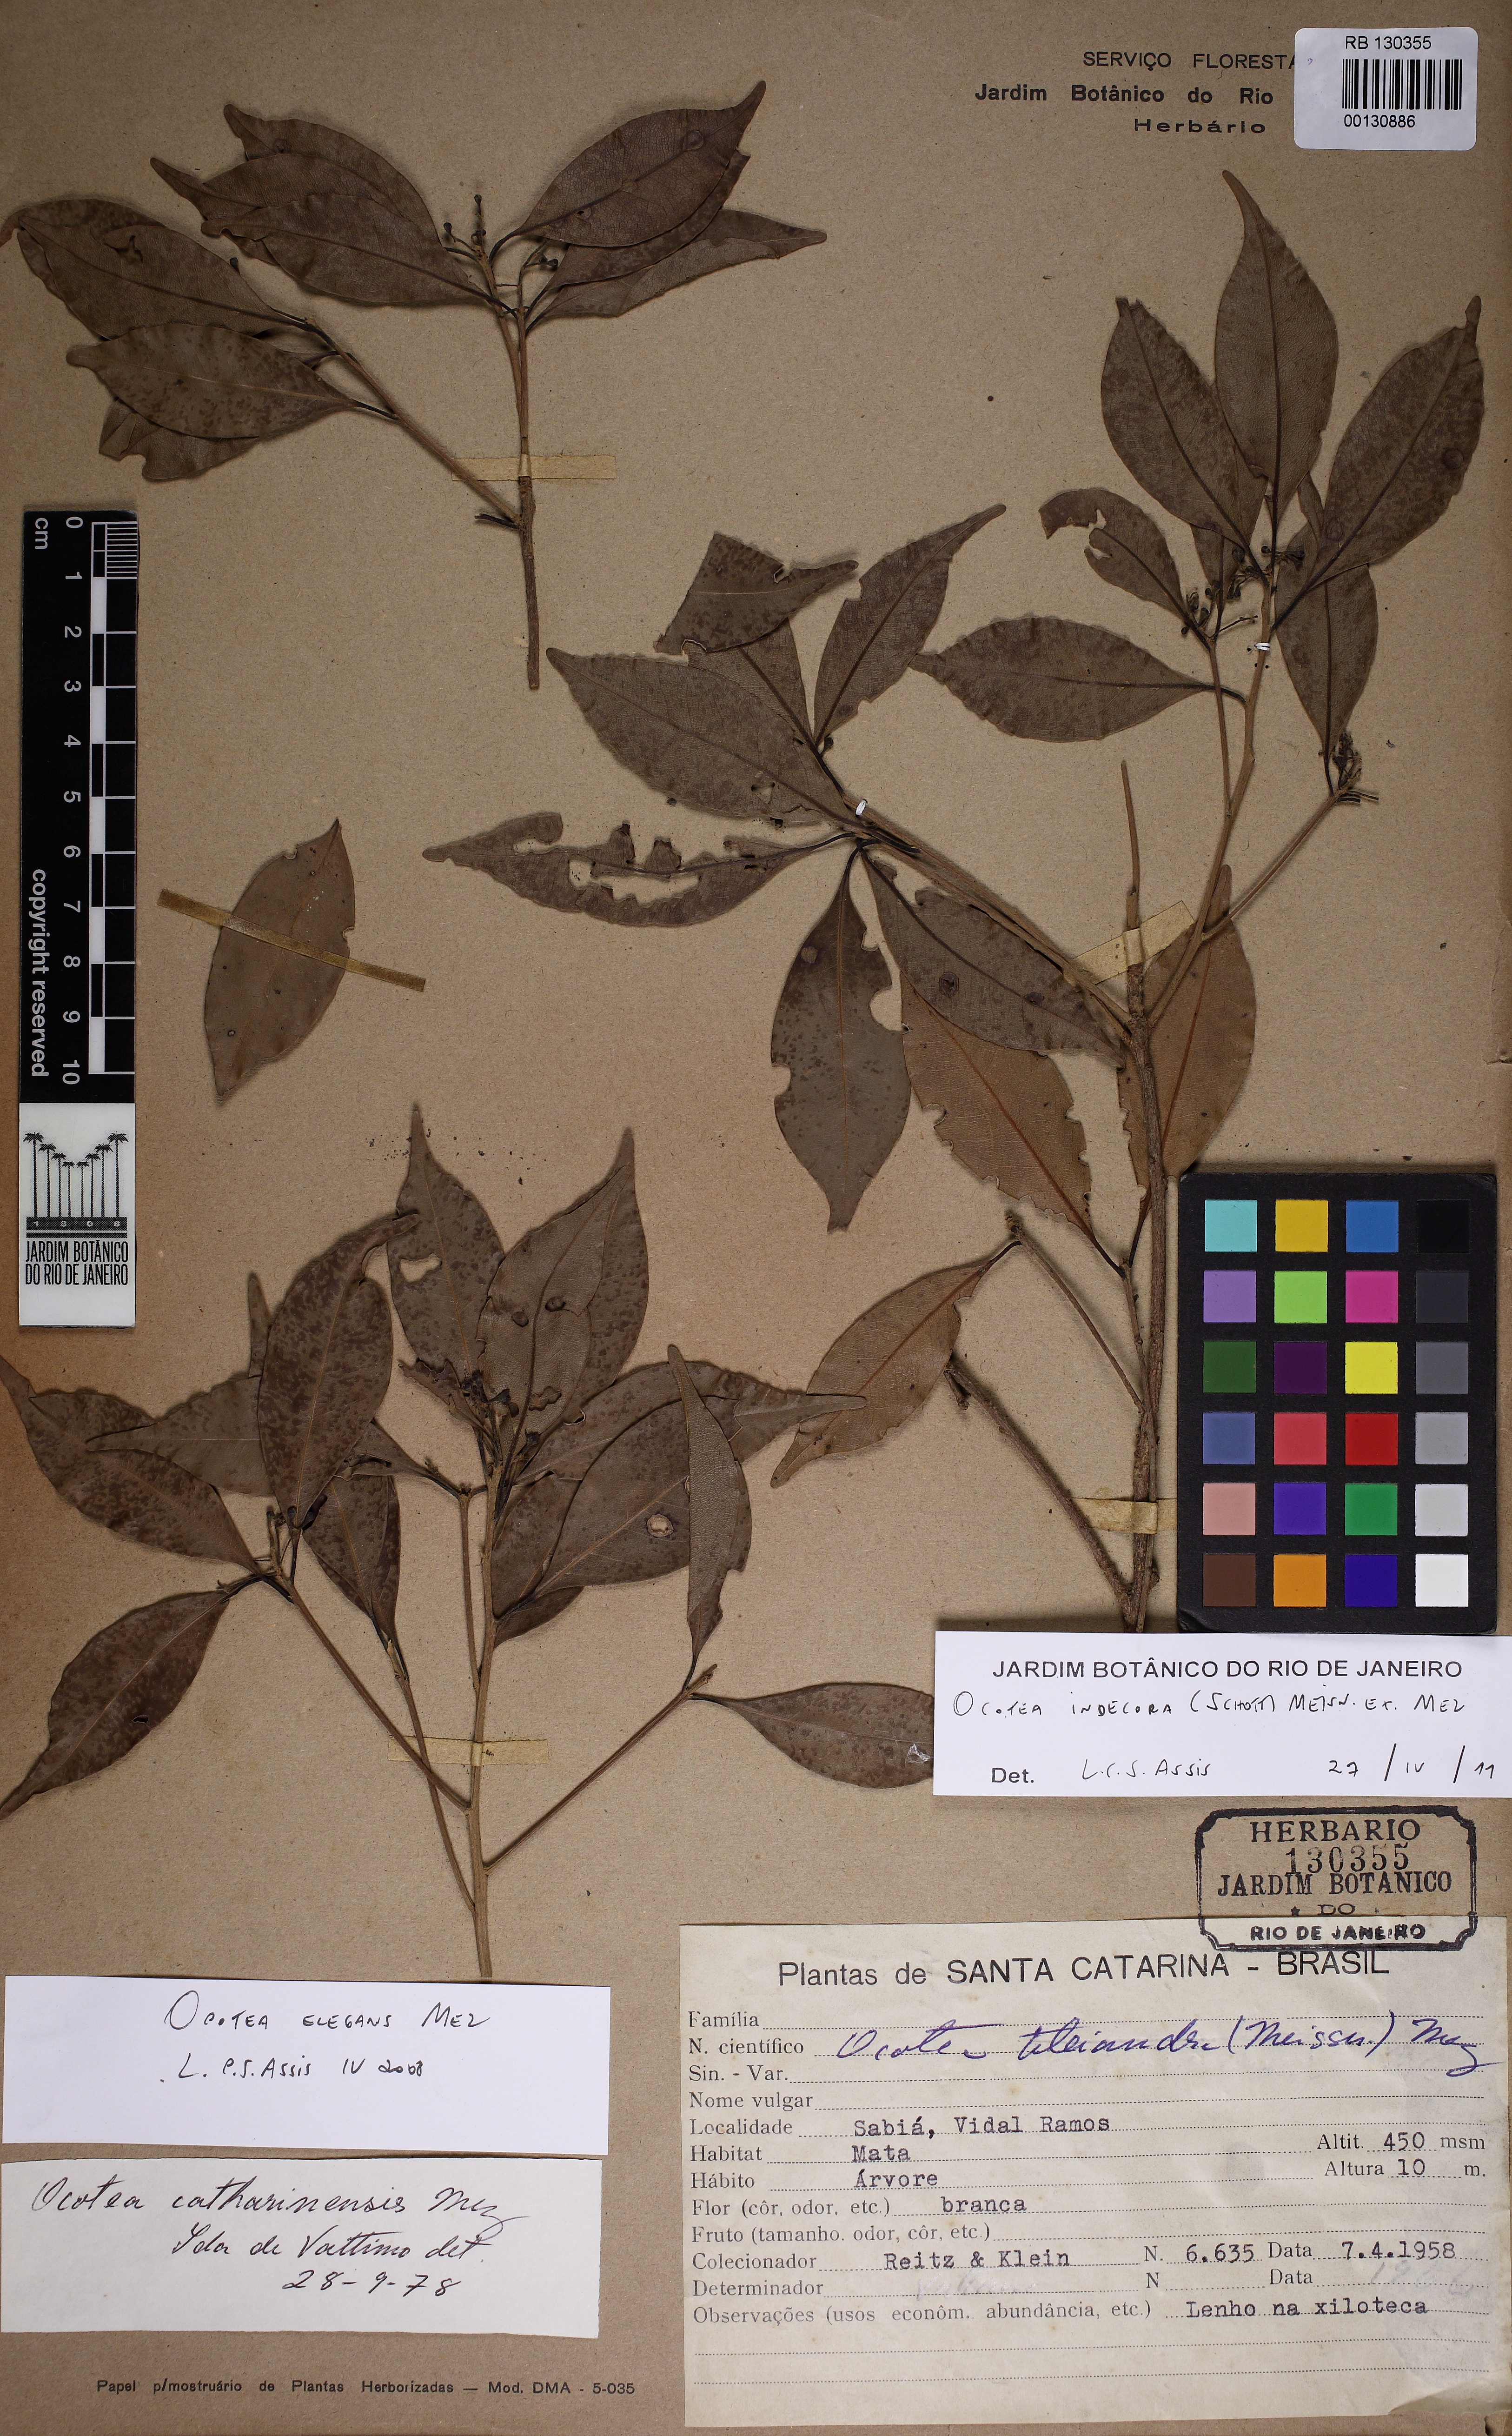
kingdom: Plantae
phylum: Tracheophyta
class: Magnoliopsida
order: Laurales
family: Lauraceae
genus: Mespilodaphne
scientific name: Mespilodaphne indecora
